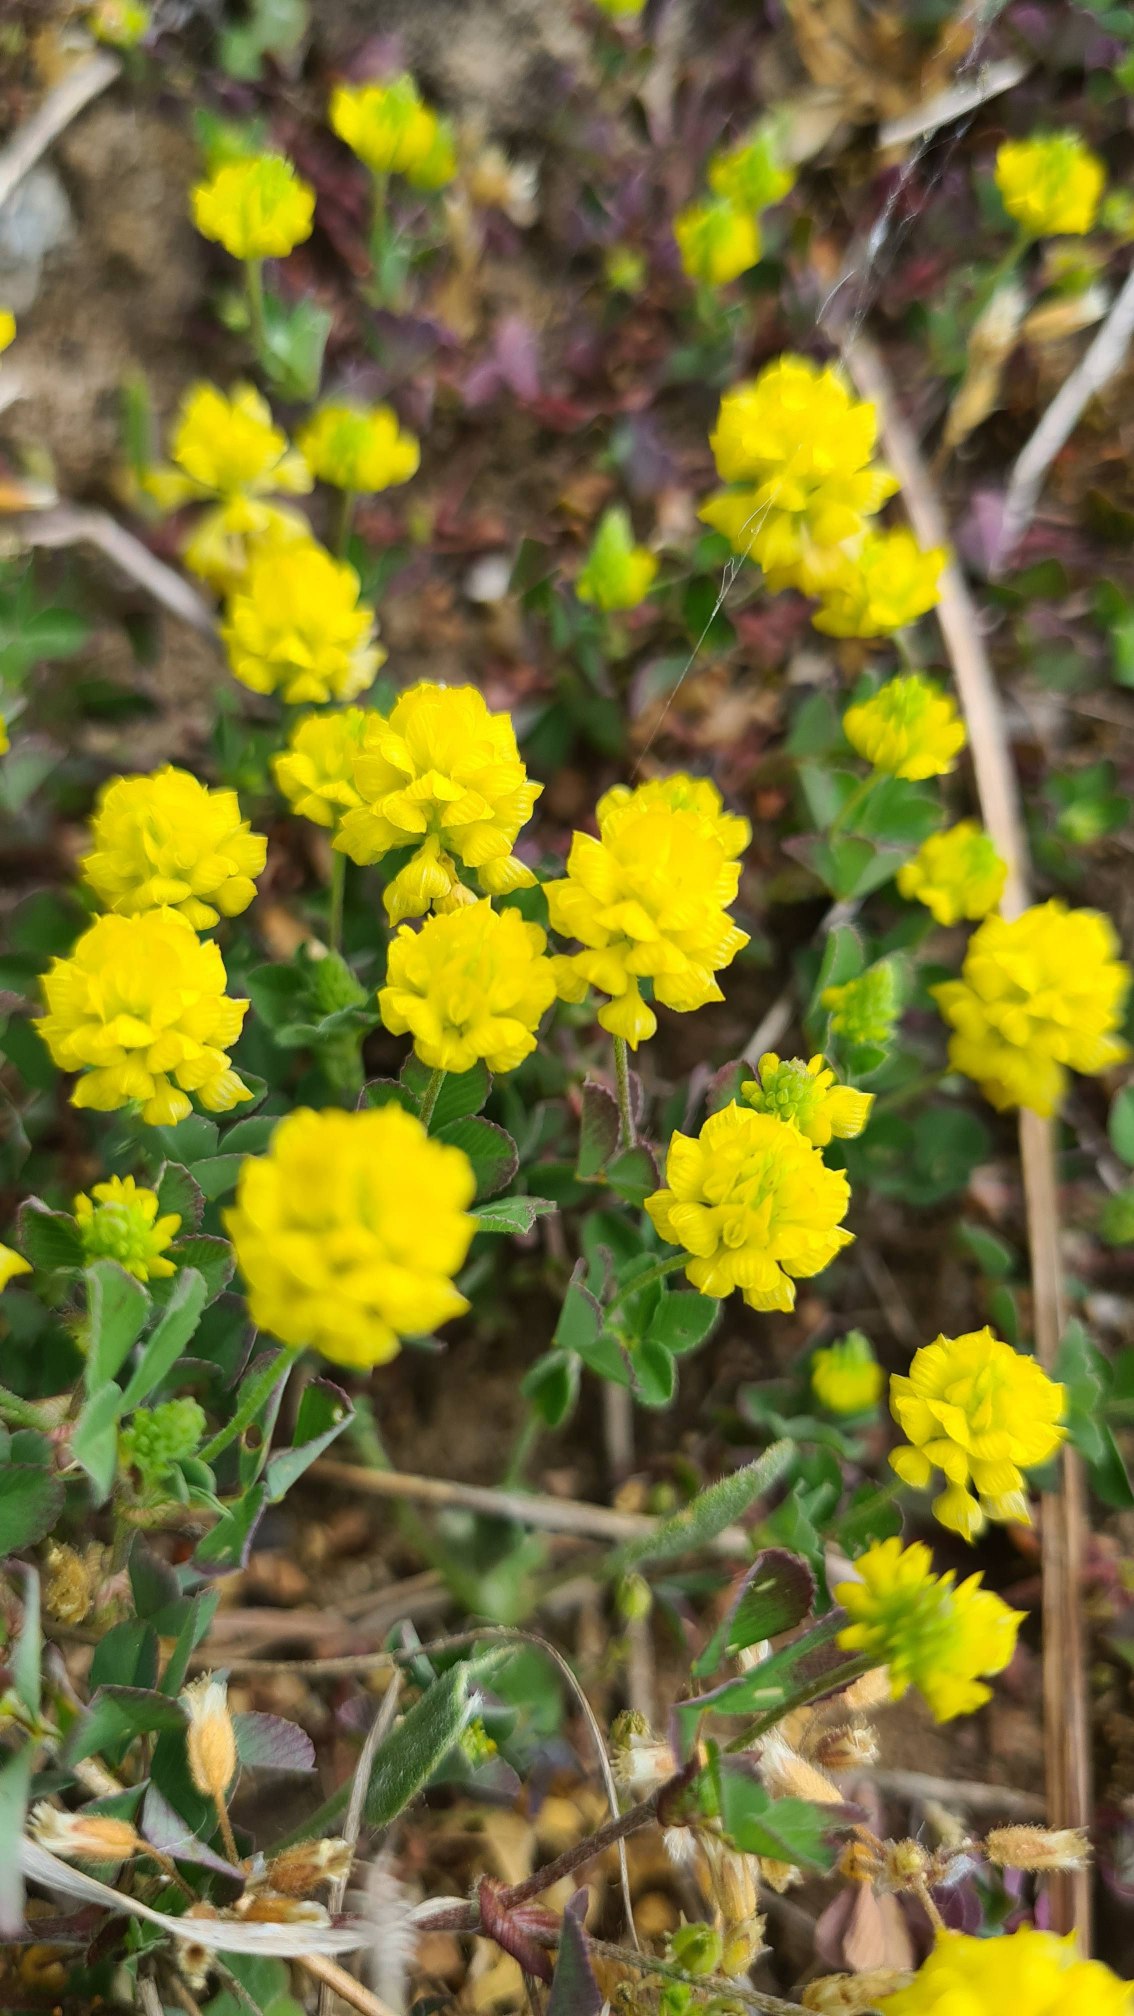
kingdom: Plantae
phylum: Tracheophyta
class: Magnoliopsida
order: Fabales
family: Fabaceae
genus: Trifolium
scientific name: Trifolium campestre
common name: Gul kløver
